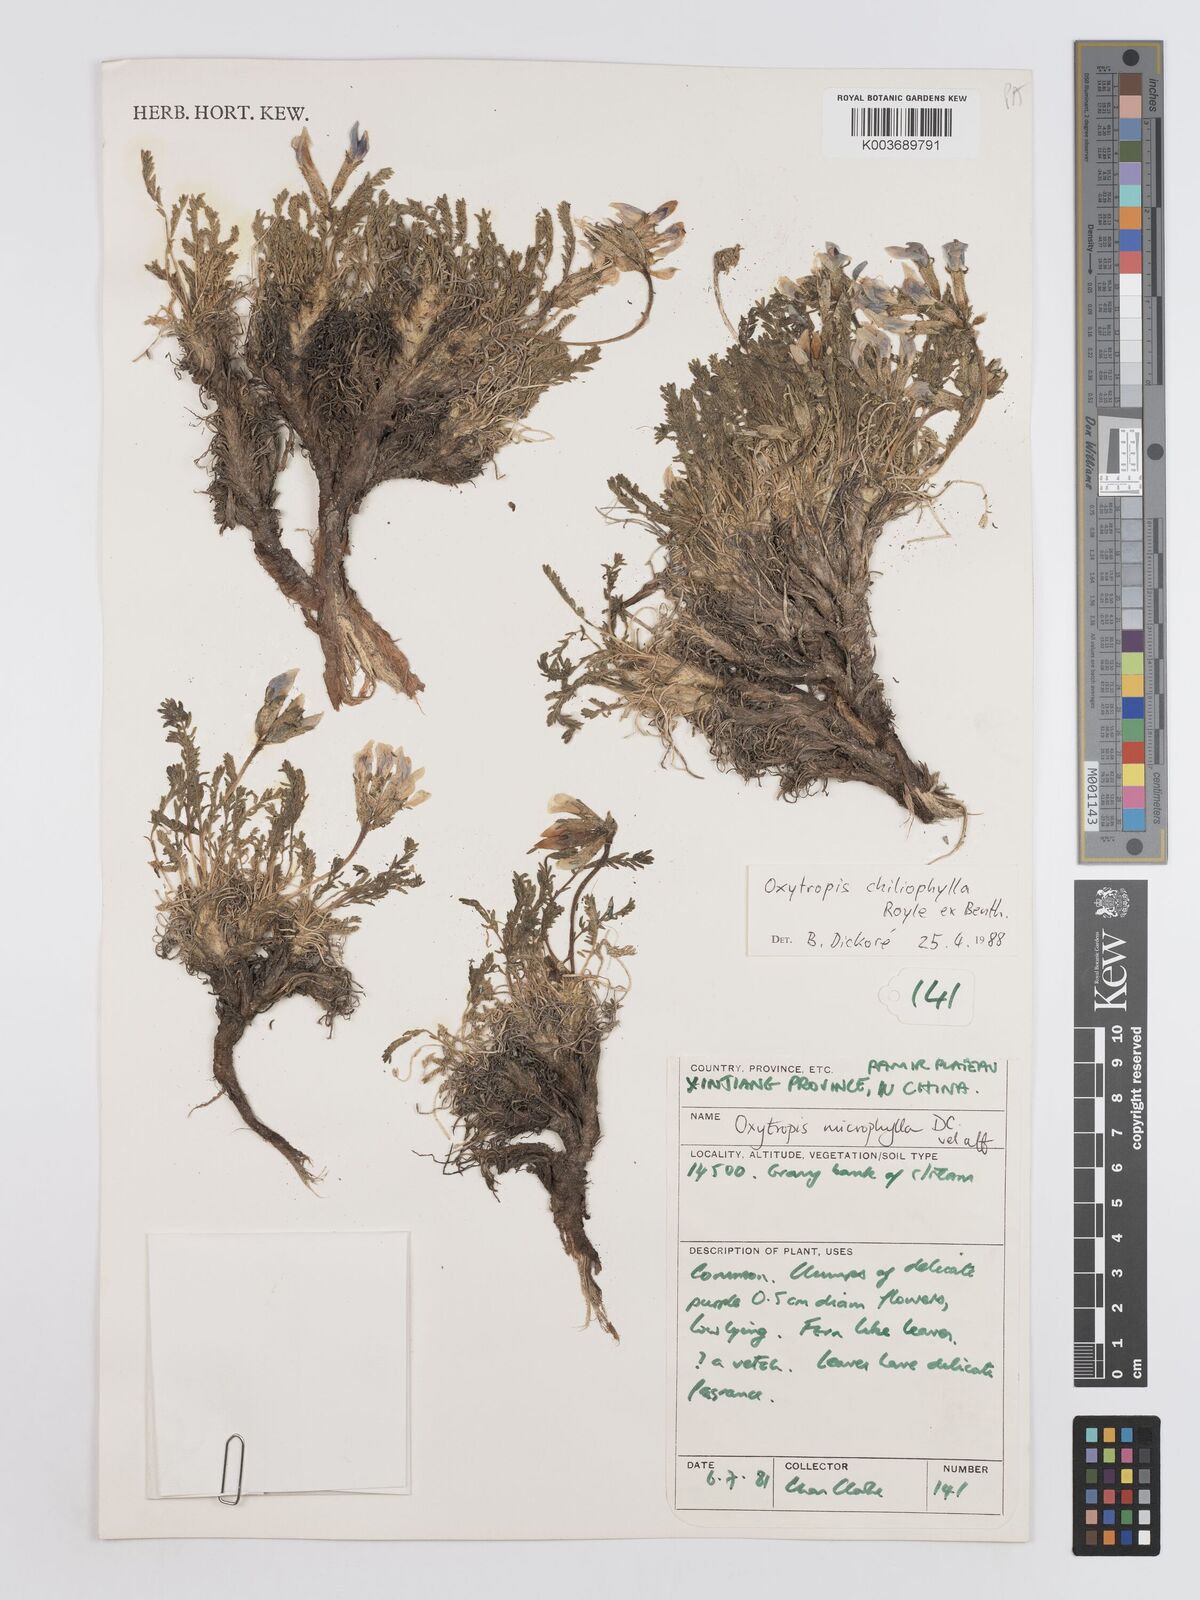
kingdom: Plantae
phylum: Tracheophyta
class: Magnoliopsida
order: Fabales
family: Fabaceae
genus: Oxytropis
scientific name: Oxytropis chiliophylla
